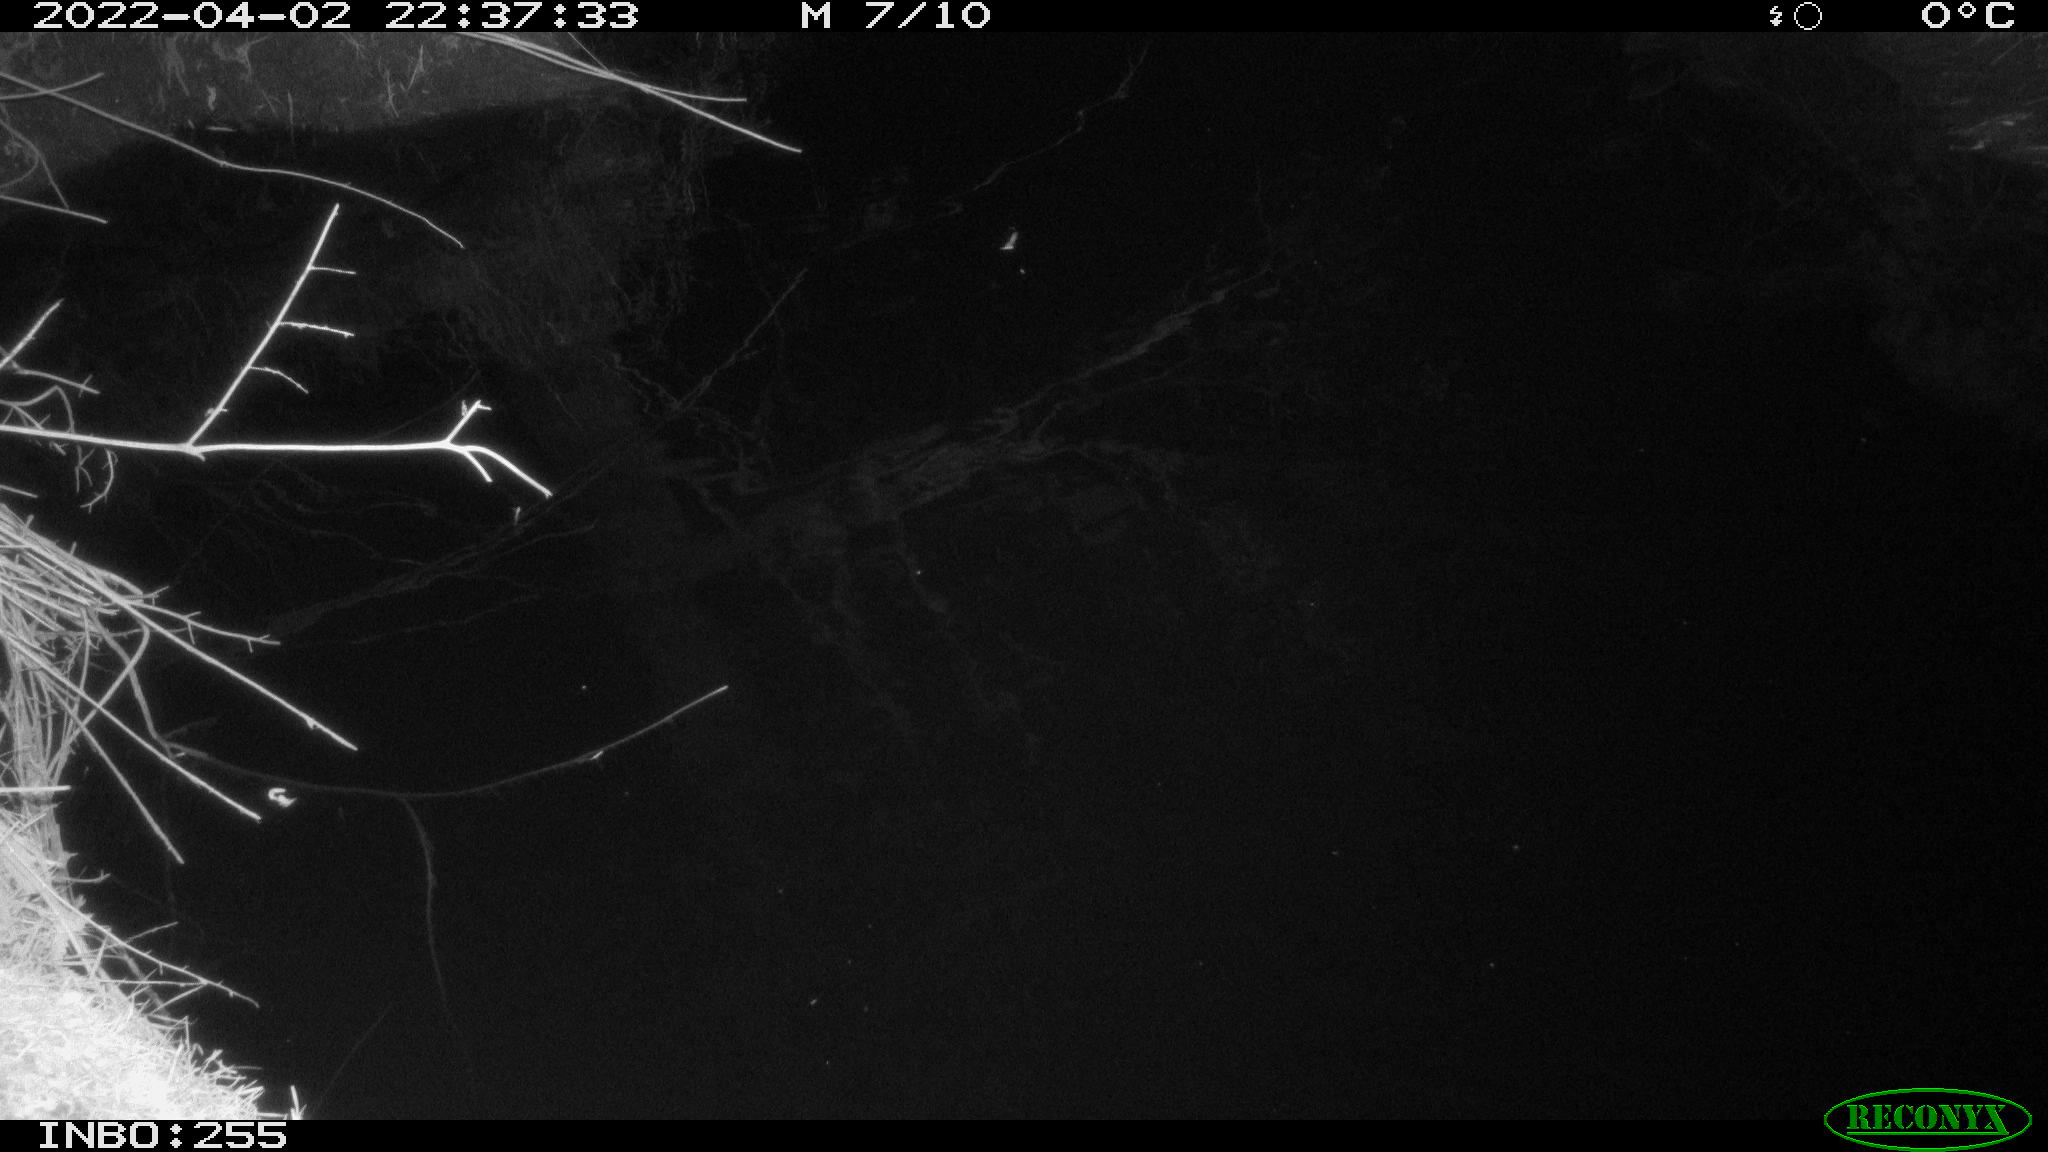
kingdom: Animalia
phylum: Chordata
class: Aves
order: Anseriformes
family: Anatidae
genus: Anas
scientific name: Anas platyrhynchos
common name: Mallard
